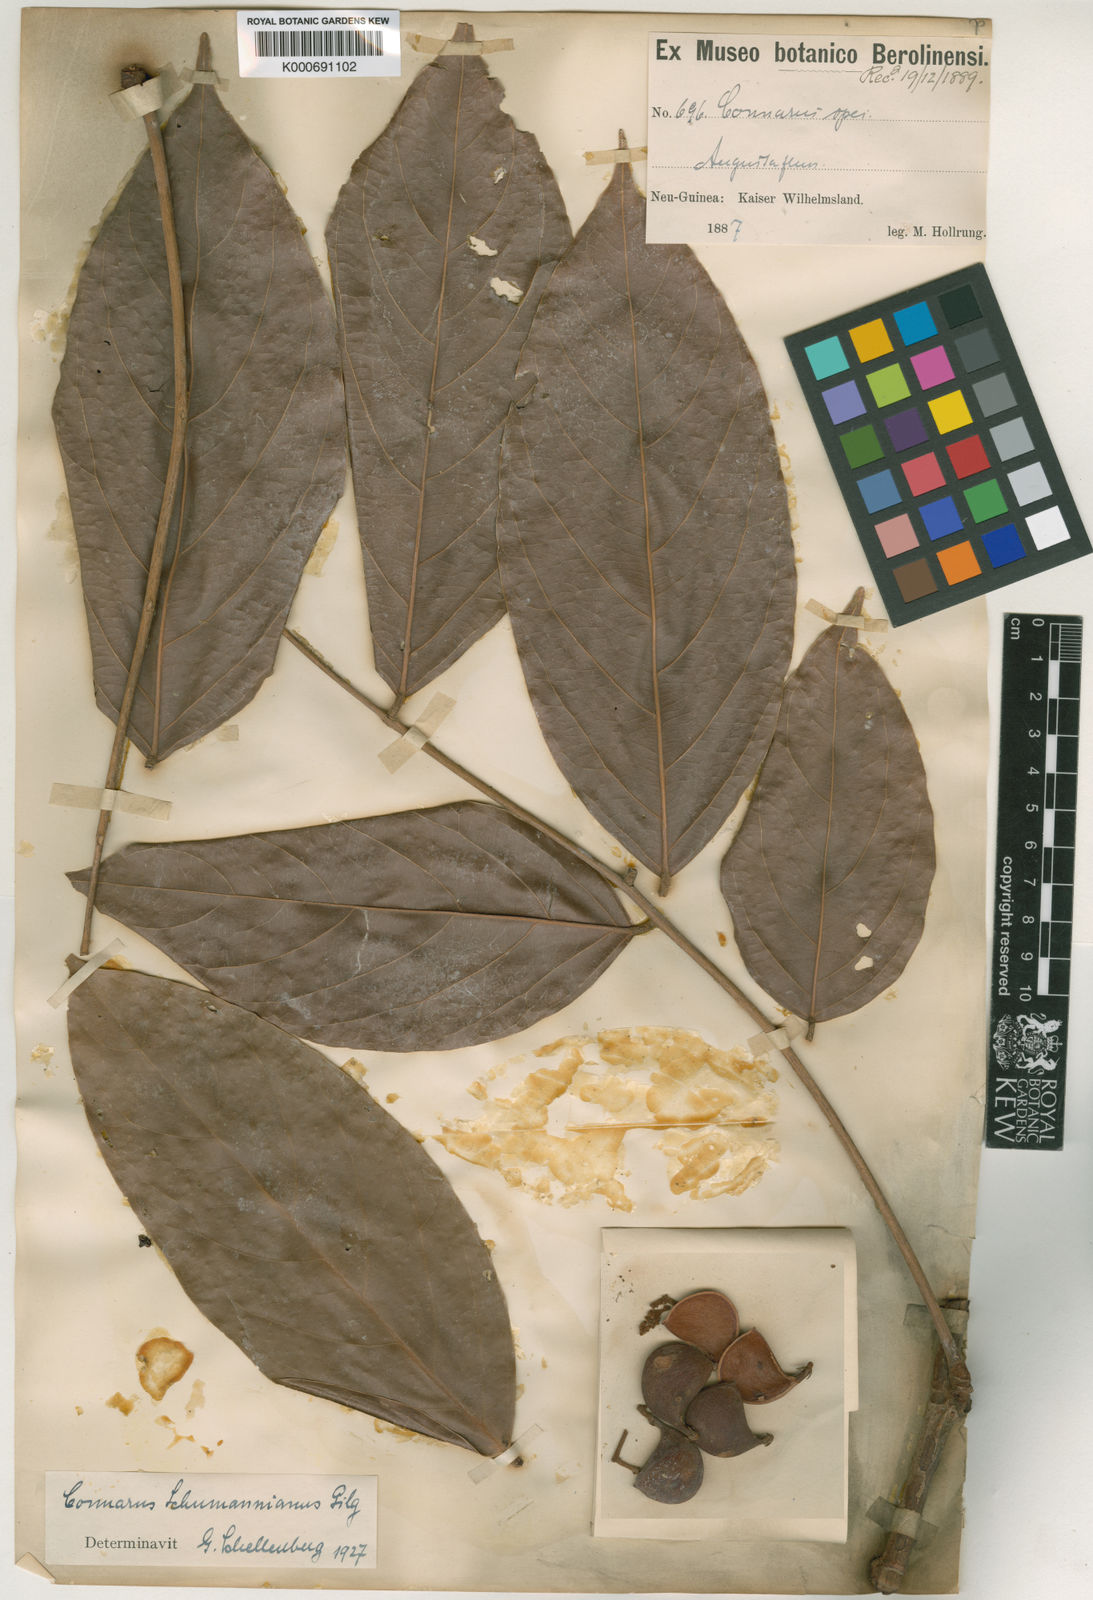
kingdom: Plantae
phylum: Tracheophyta
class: Magnoliopsida
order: Oxalidales
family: Connaraceae
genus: Connarus
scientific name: Connarus conchocarpus
